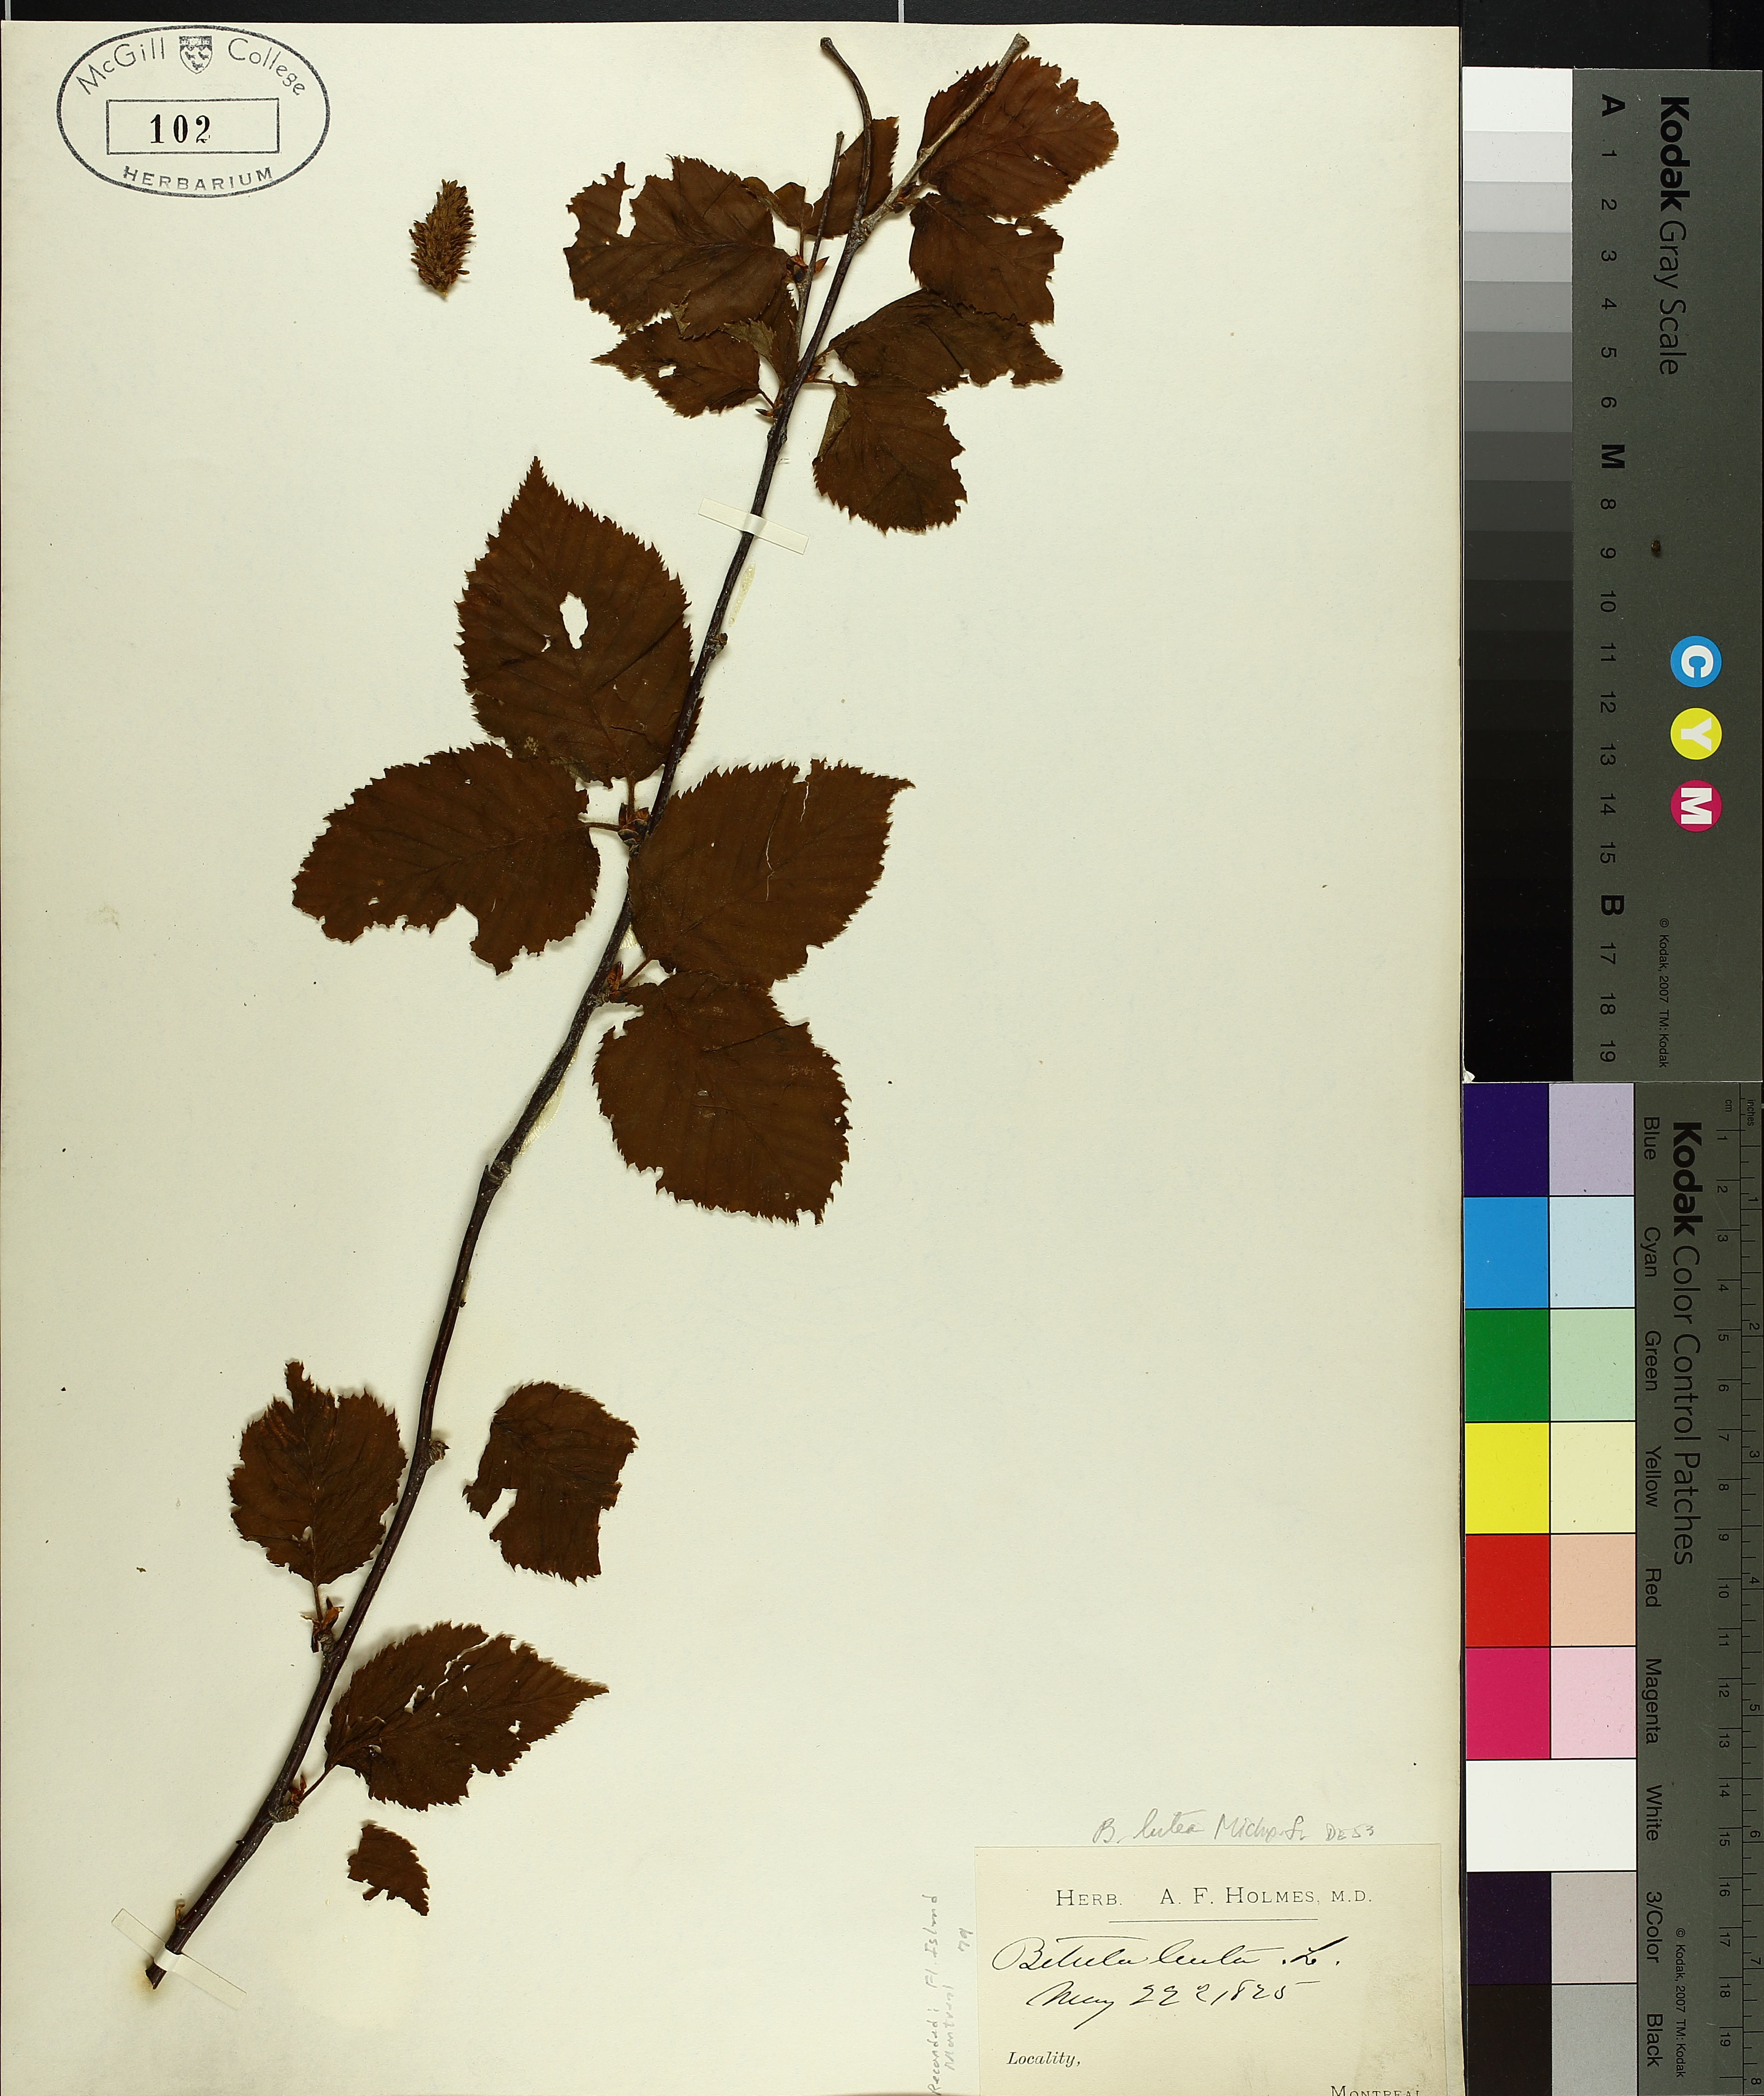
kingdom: Plantae
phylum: Tracheophyta
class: Magnoliopsida
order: Fagales
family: Betulaceae
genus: Betula
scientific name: Betula alleghaniensis
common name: Yellow birch
